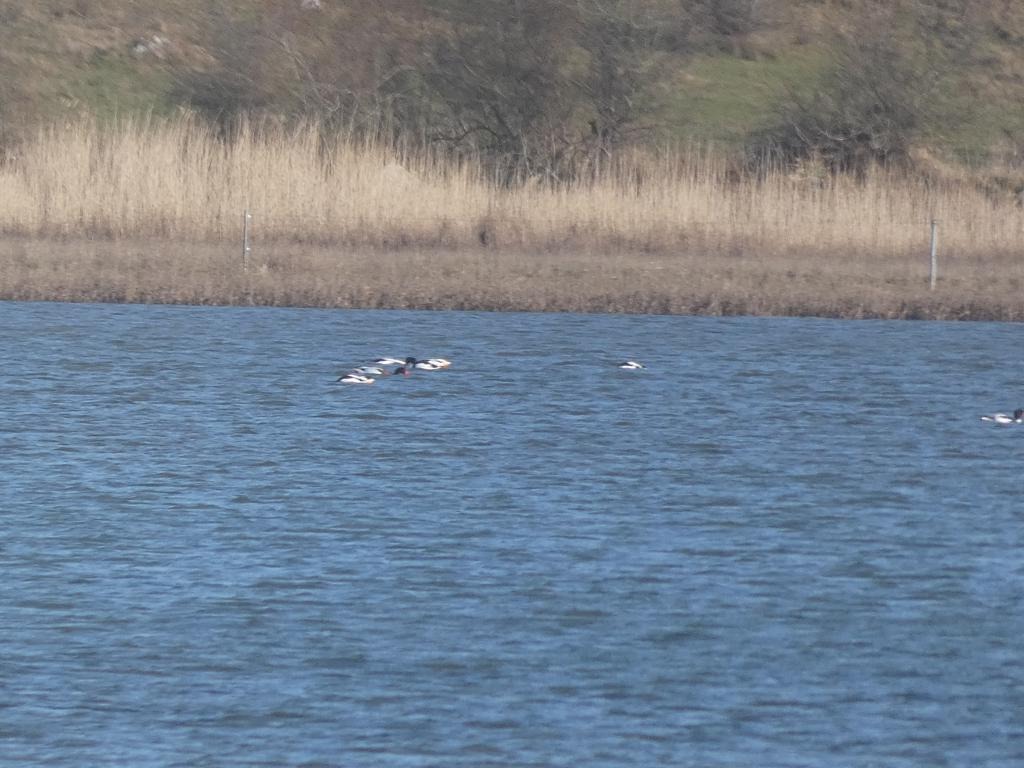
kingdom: Animalia
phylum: Chordata
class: Aves
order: Anseriformes
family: Anatidae
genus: Tadorna
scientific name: Tadorna tadorna
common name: Gravand
